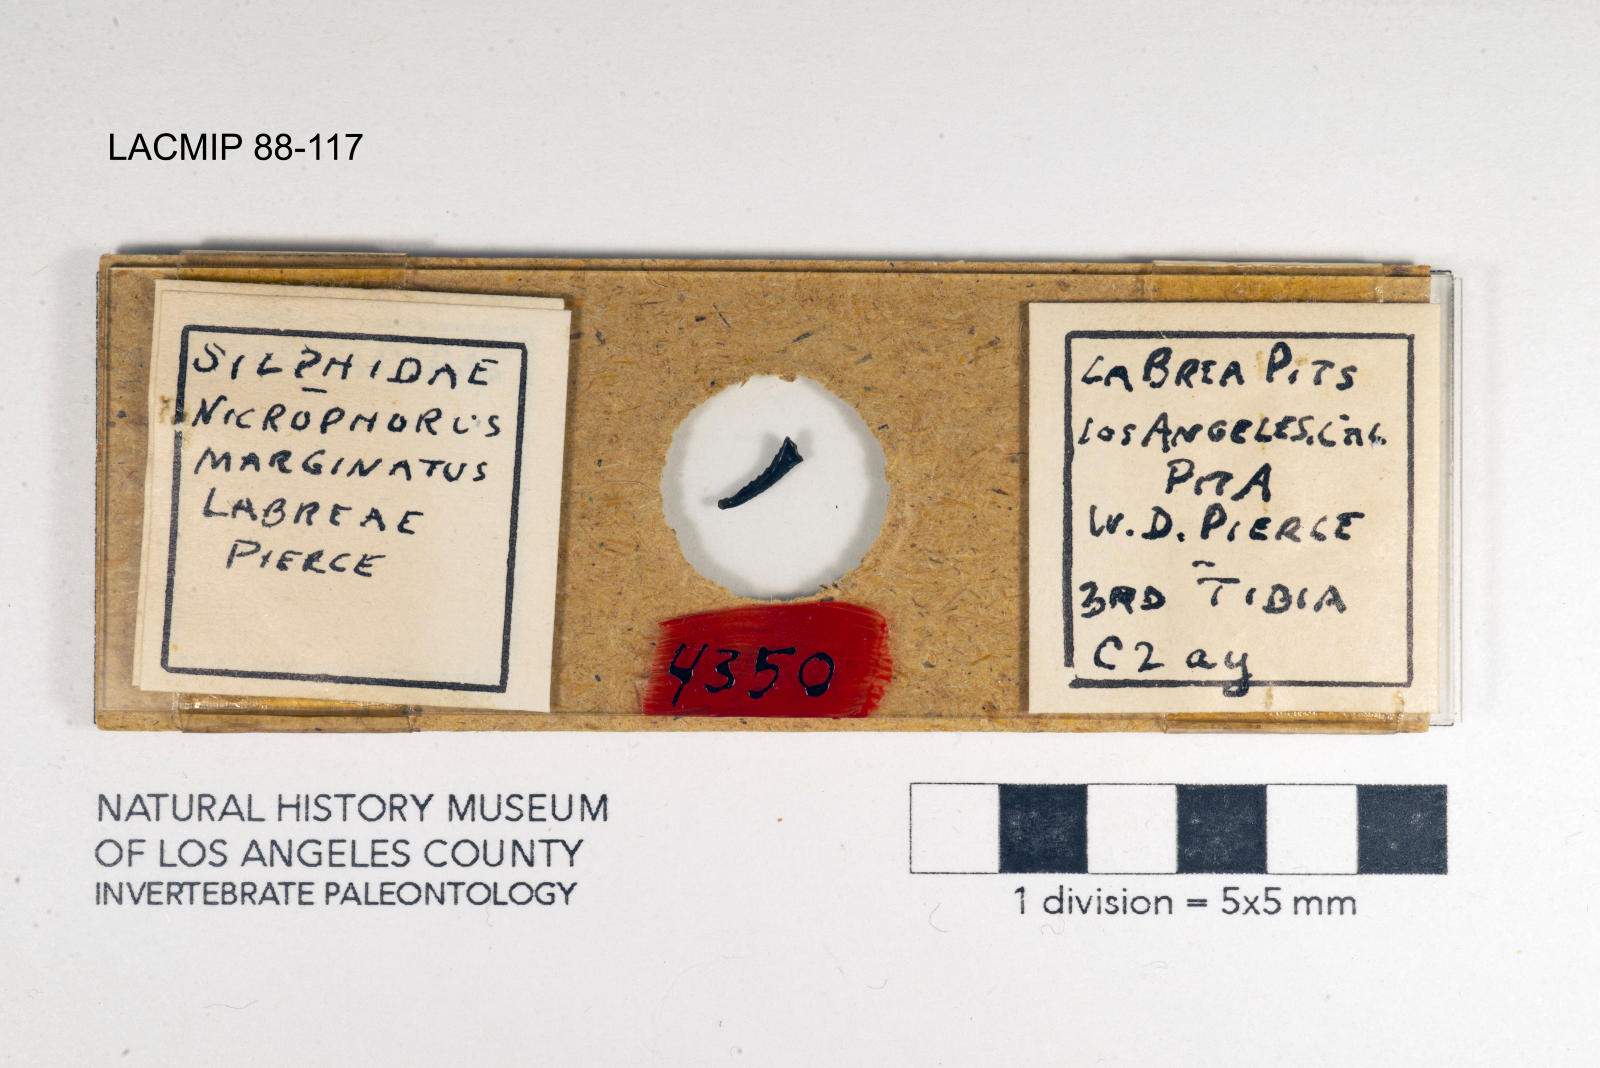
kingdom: Animalia
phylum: Arthropoda
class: Insecta
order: Coleoptera
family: Staphylinidae
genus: Nicrophorus
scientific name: Nicrophorus marginatus
